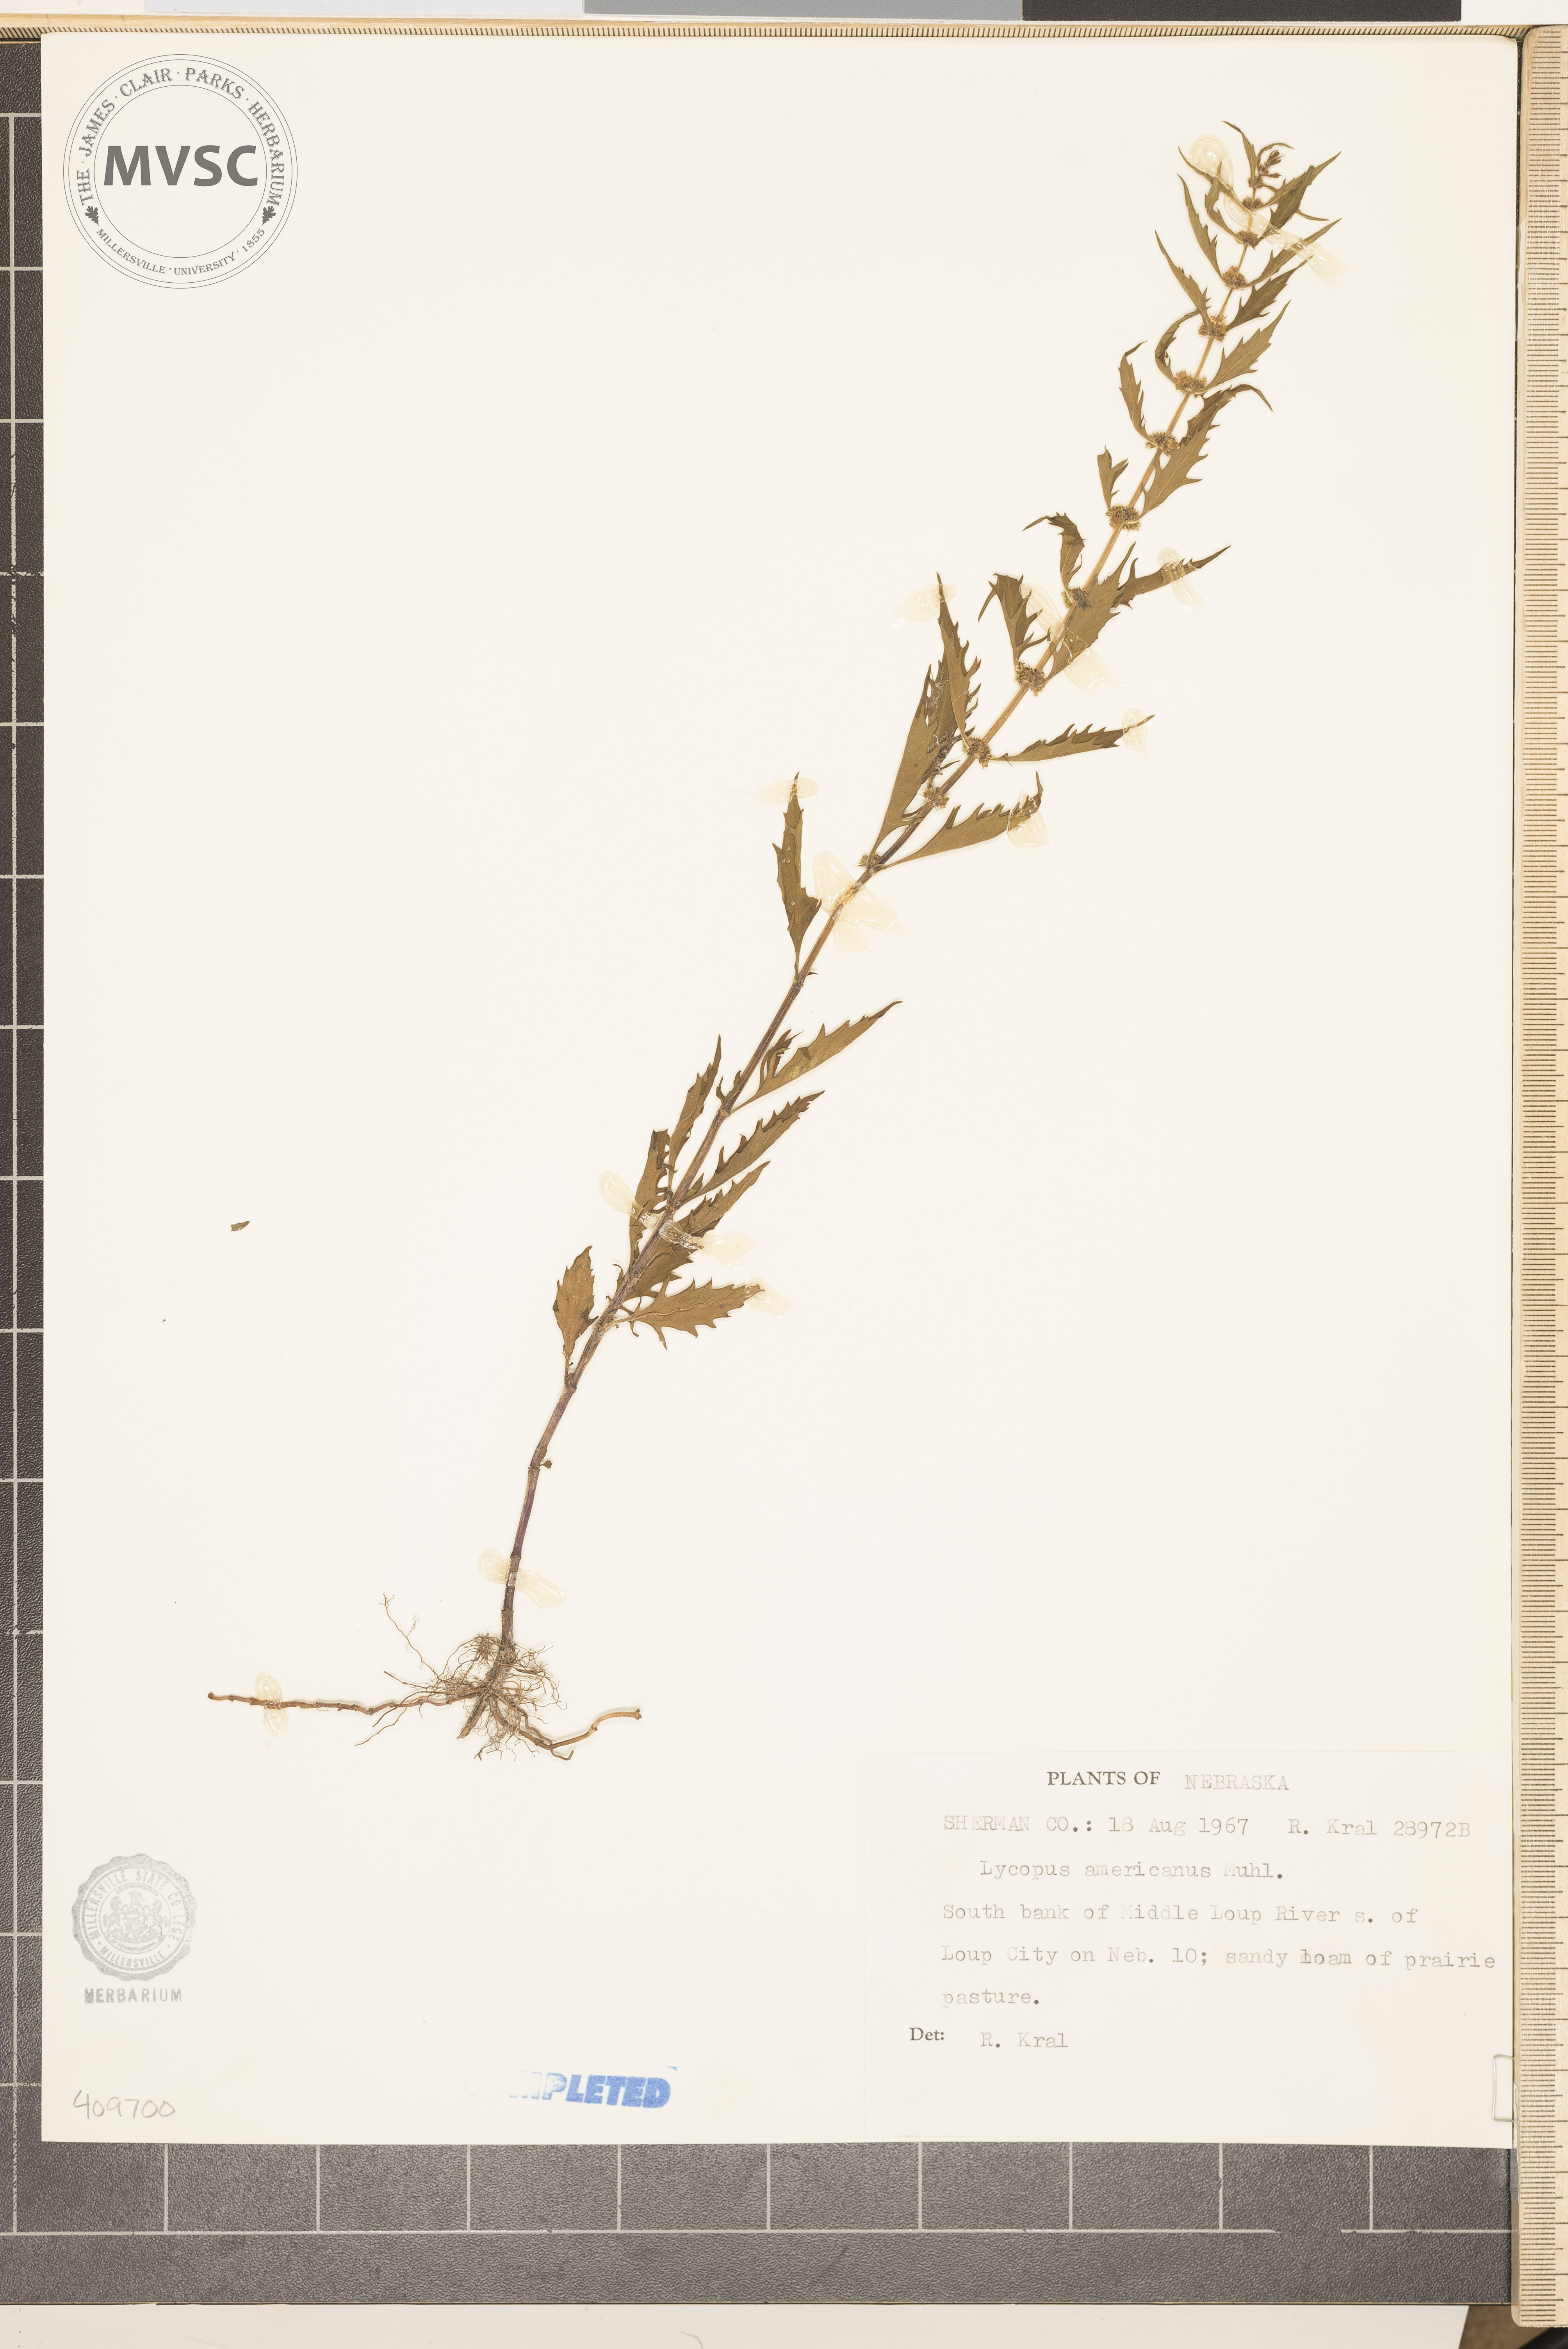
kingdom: Plantae
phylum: Tracheophyta
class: Magnoliopsida
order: Lamiales
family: Lamiaceae
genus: Lycopus
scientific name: Lycopus americanus
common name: American bugleweed
